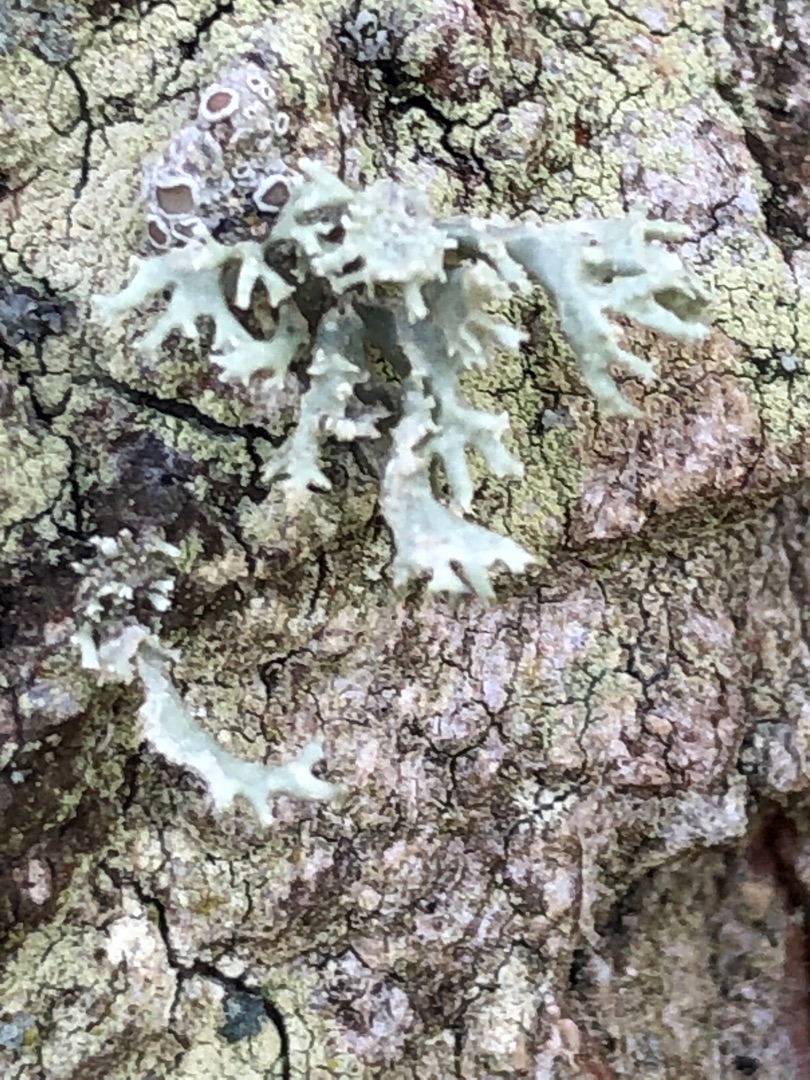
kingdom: Fungi
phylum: Ascomycota
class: Lecanoromycetes
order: Lecanorales
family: Parmeliaceae
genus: Evernia
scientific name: Evernia prunastri
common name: Almindelig slåenlav
